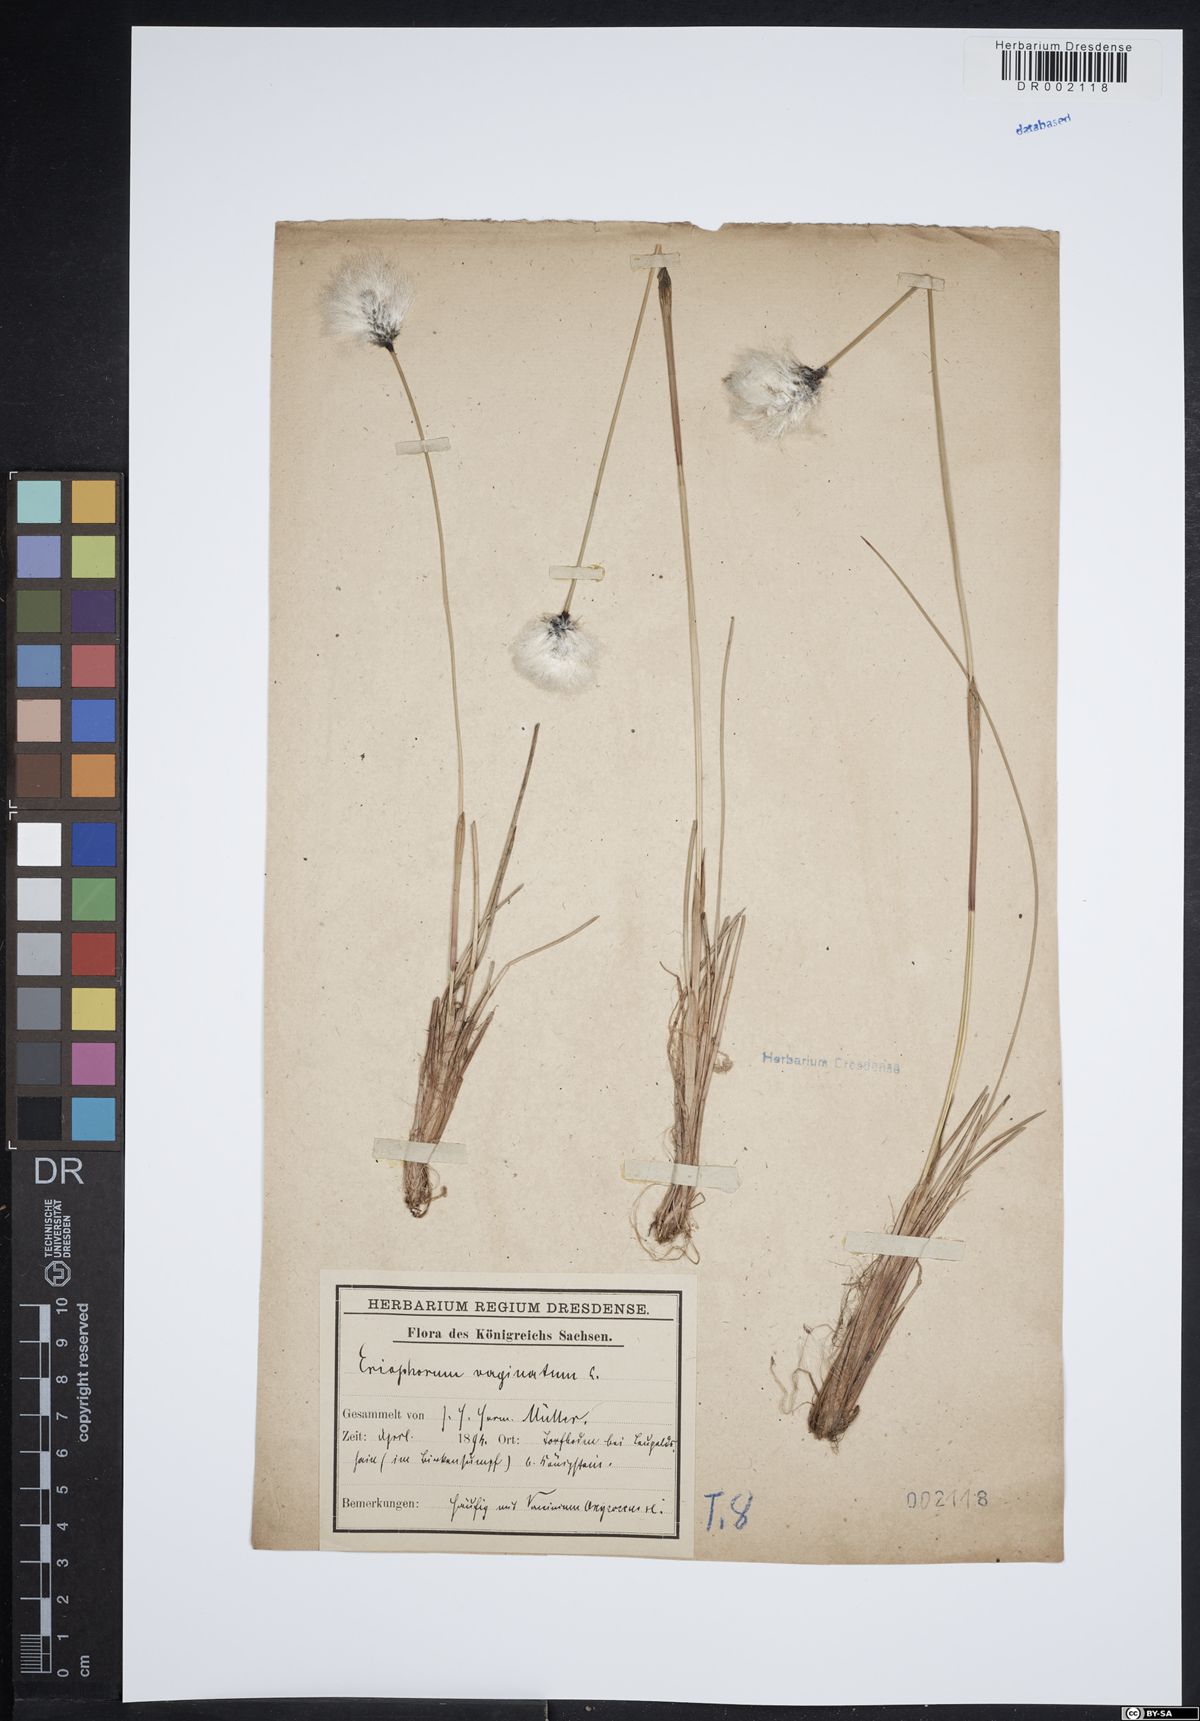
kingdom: Plantae
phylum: Tracheophyta
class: Liliopsida
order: Poales
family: Cyperaceae
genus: Eriophorum
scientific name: Eriophorum vaginatum
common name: Hare's-tail cottongrass
